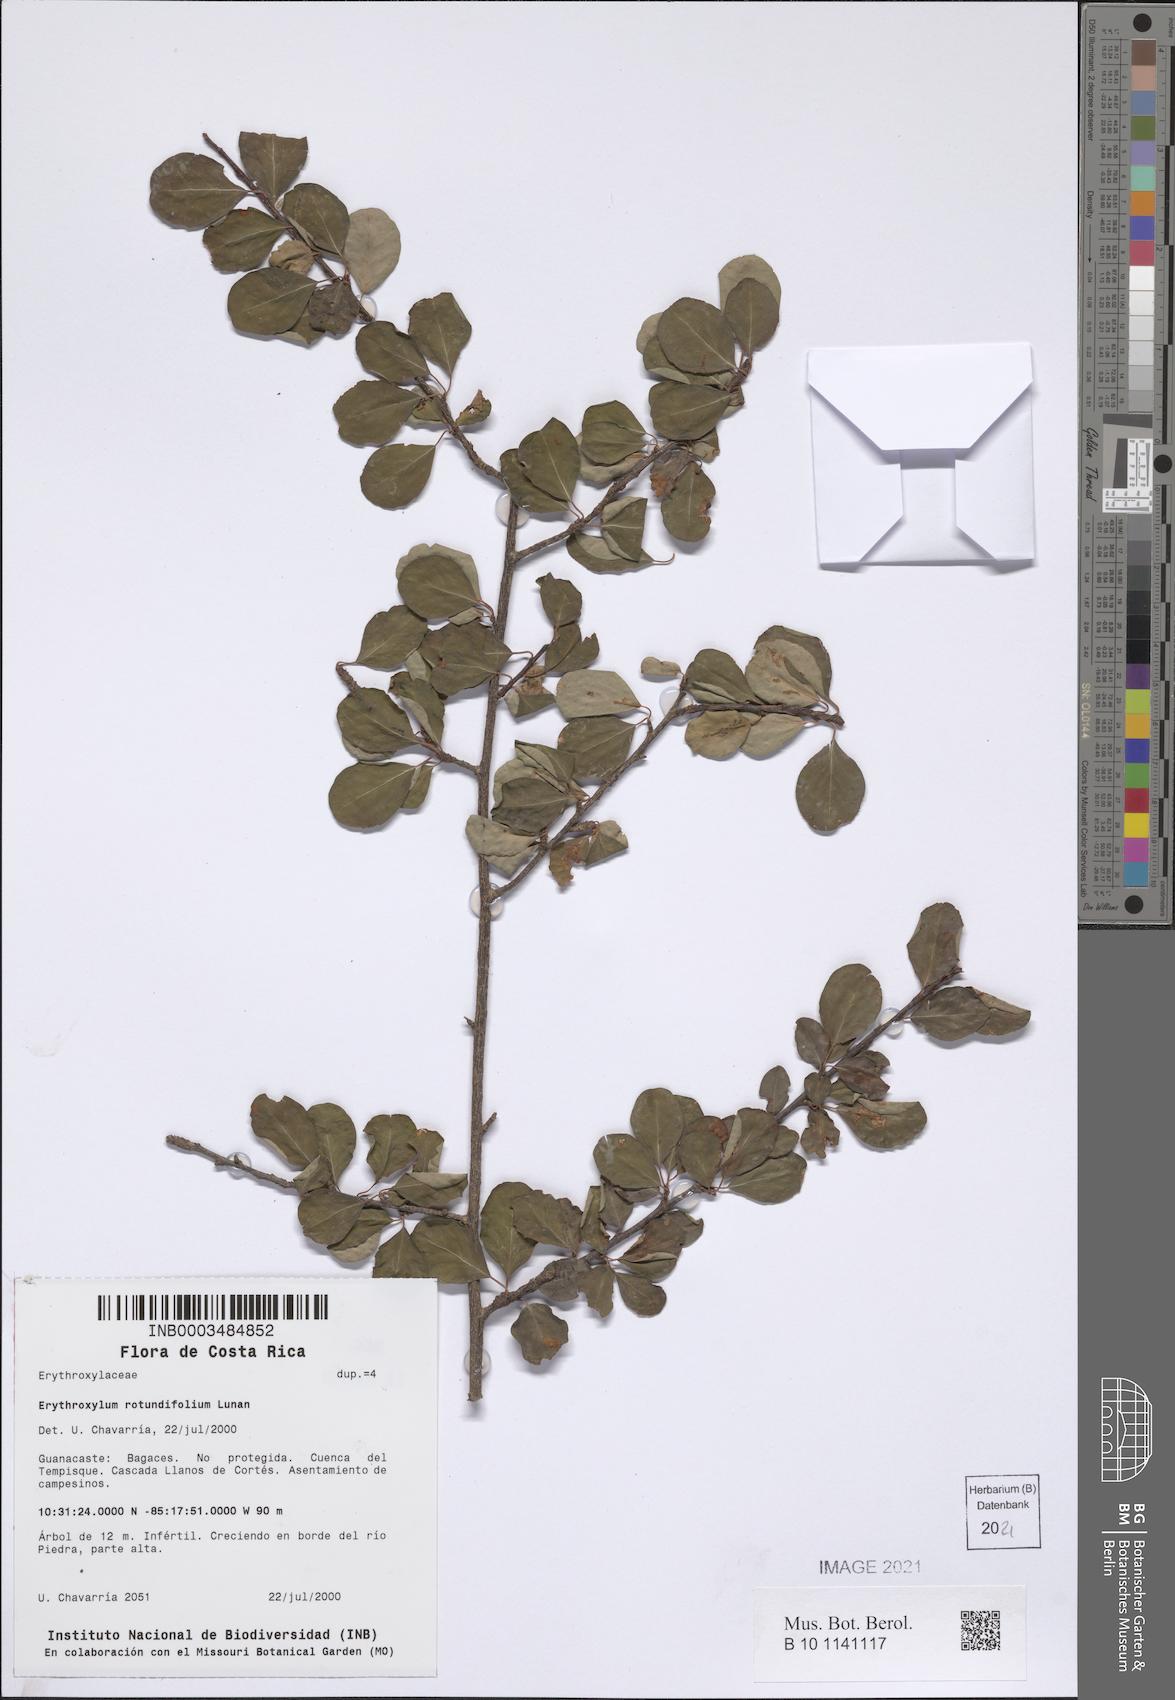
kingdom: Plantae
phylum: Tracheophyta
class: Magnoliopsida
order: Malpighiales
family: Erythroxylaceae
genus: Erythroxylum
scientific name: Erythroxylum rotundifolium
